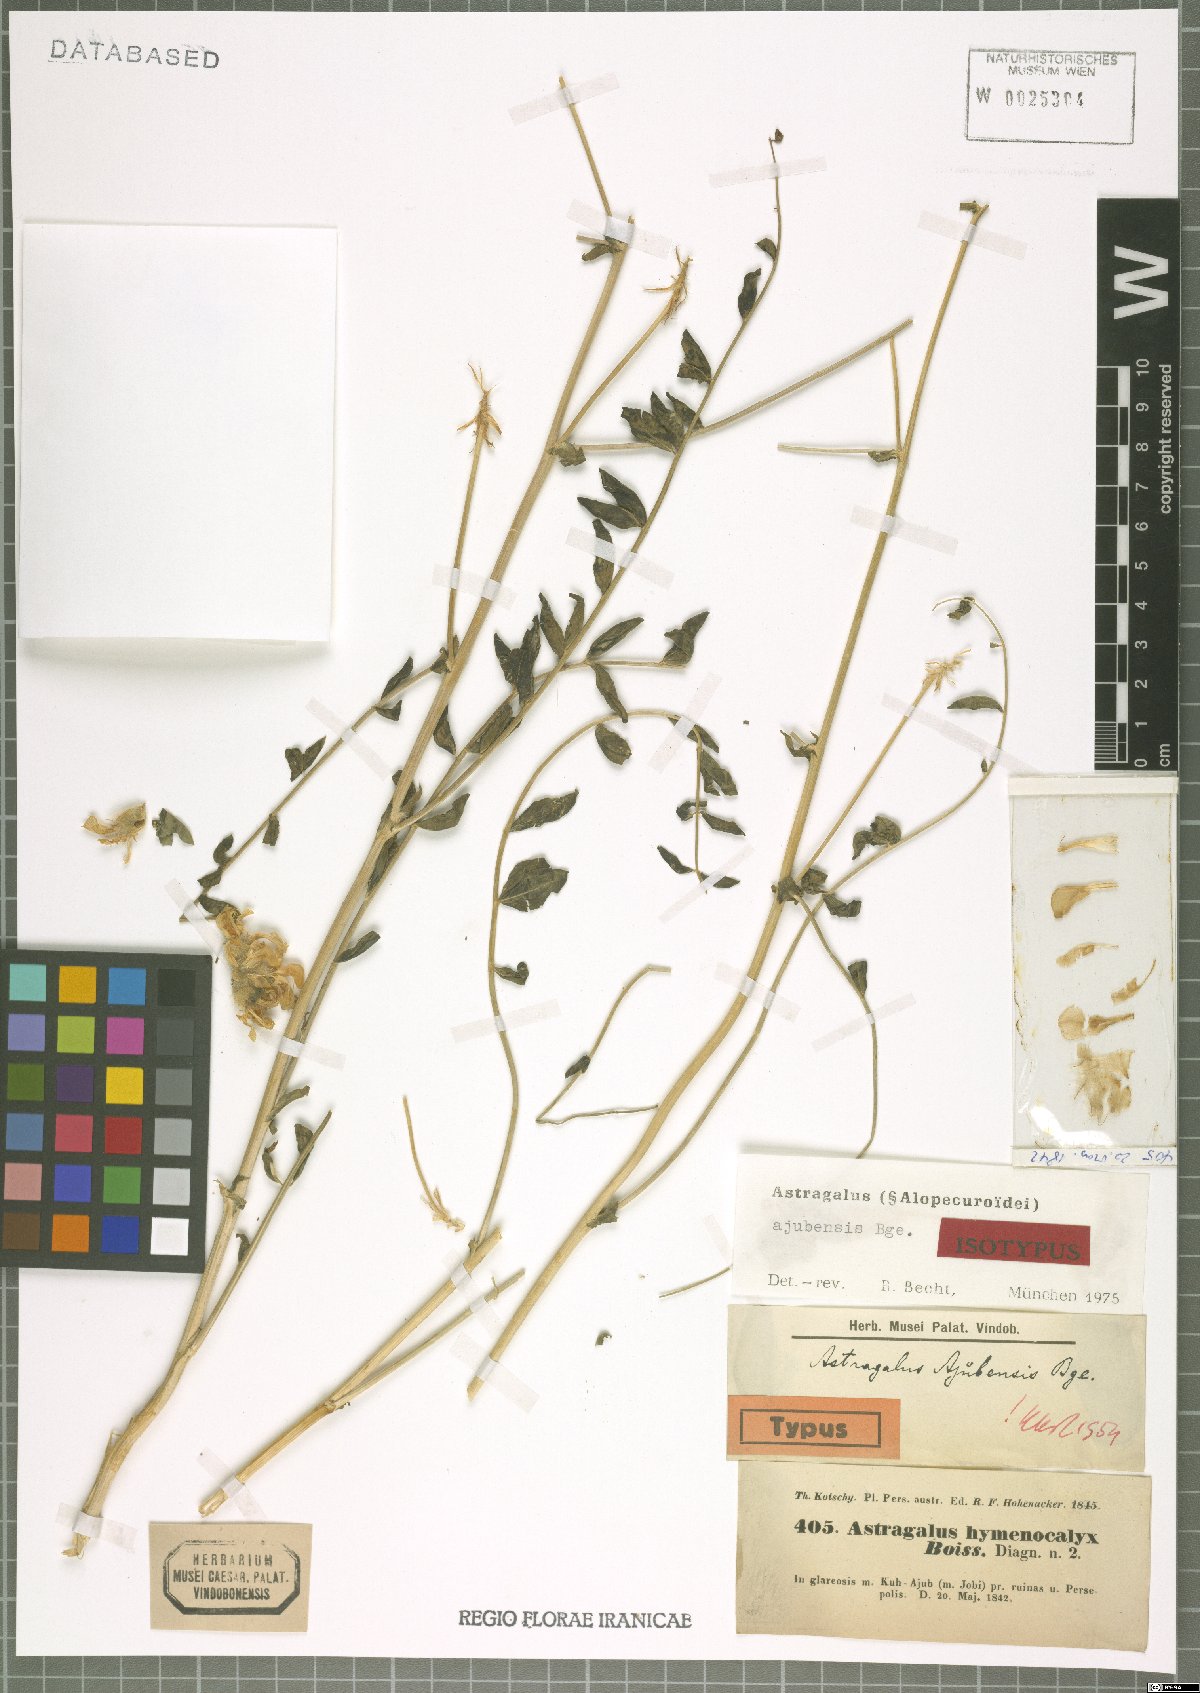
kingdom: Plantae
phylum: Tracheophyta
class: Magnoliopsida
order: Fabales
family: Fabaceae
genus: Astragalus
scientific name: Astragalus macrocephalus
